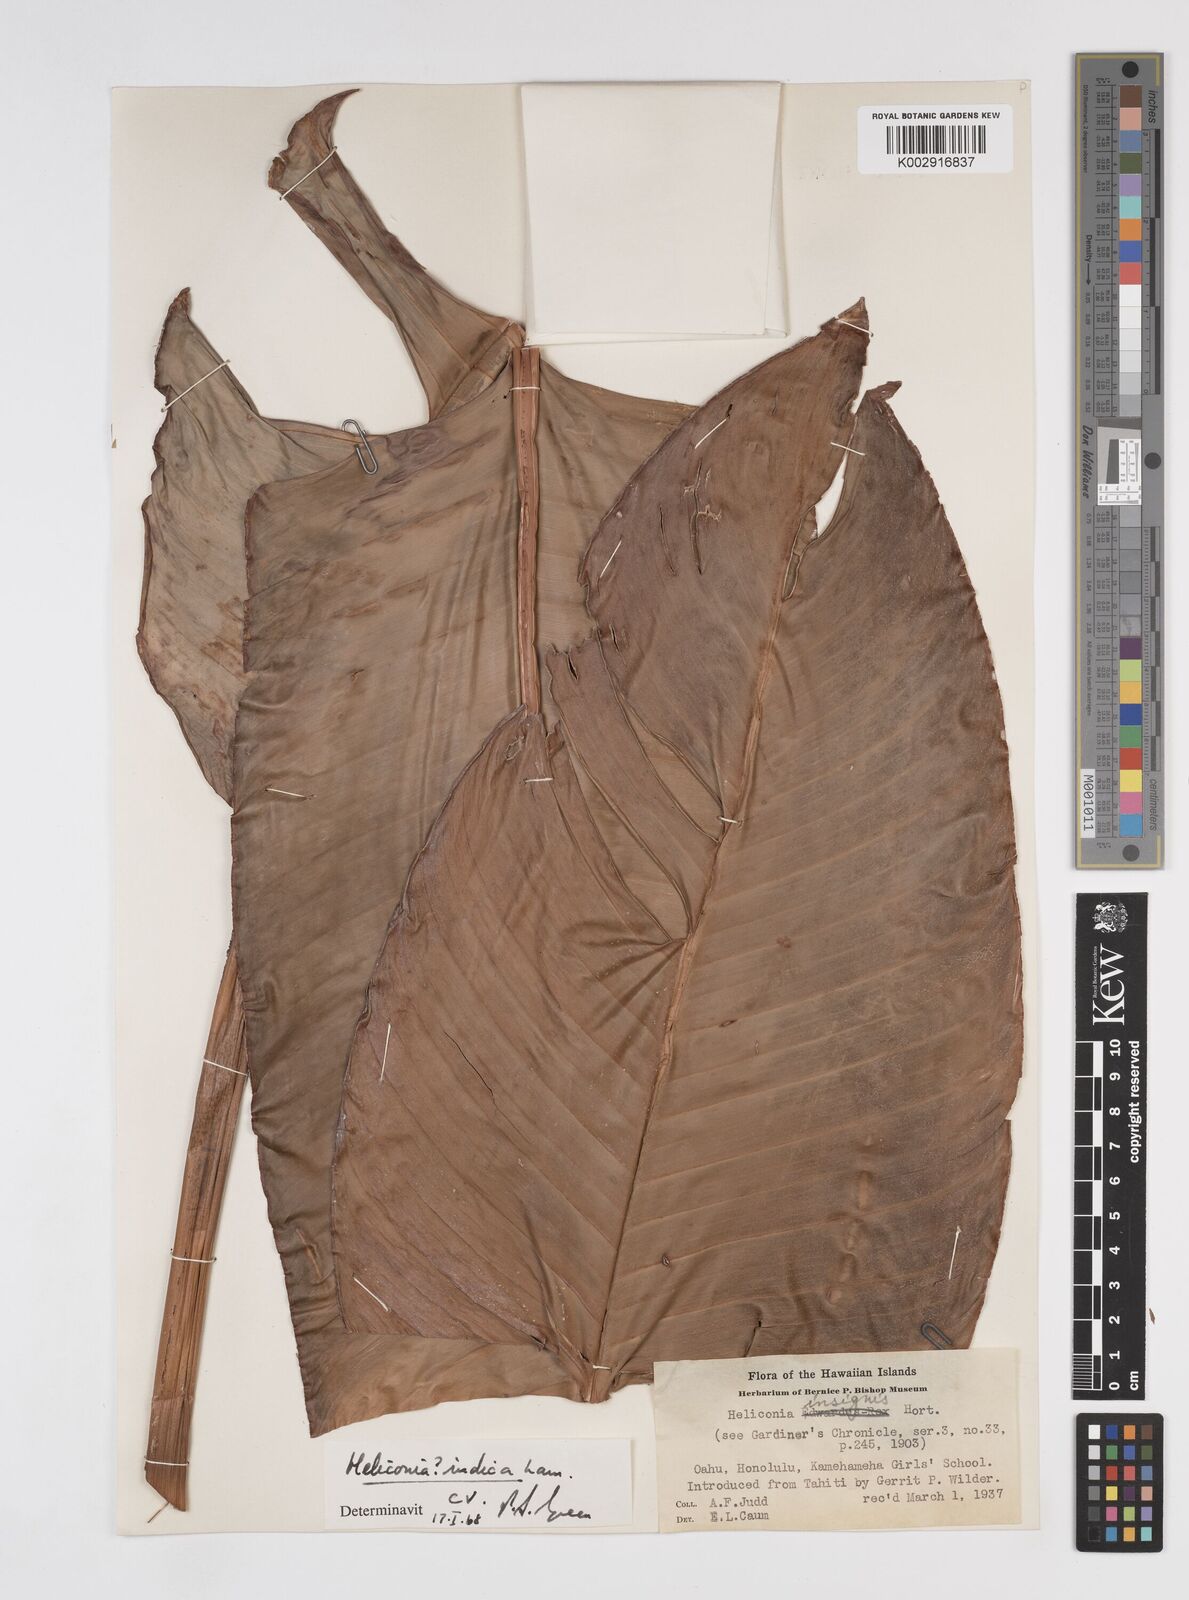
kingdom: Plantae
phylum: Tracheophyta
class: Liliopsida
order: Zingiberales
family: Heliconiaceae
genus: Heliconia
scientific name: Heliconia indica
